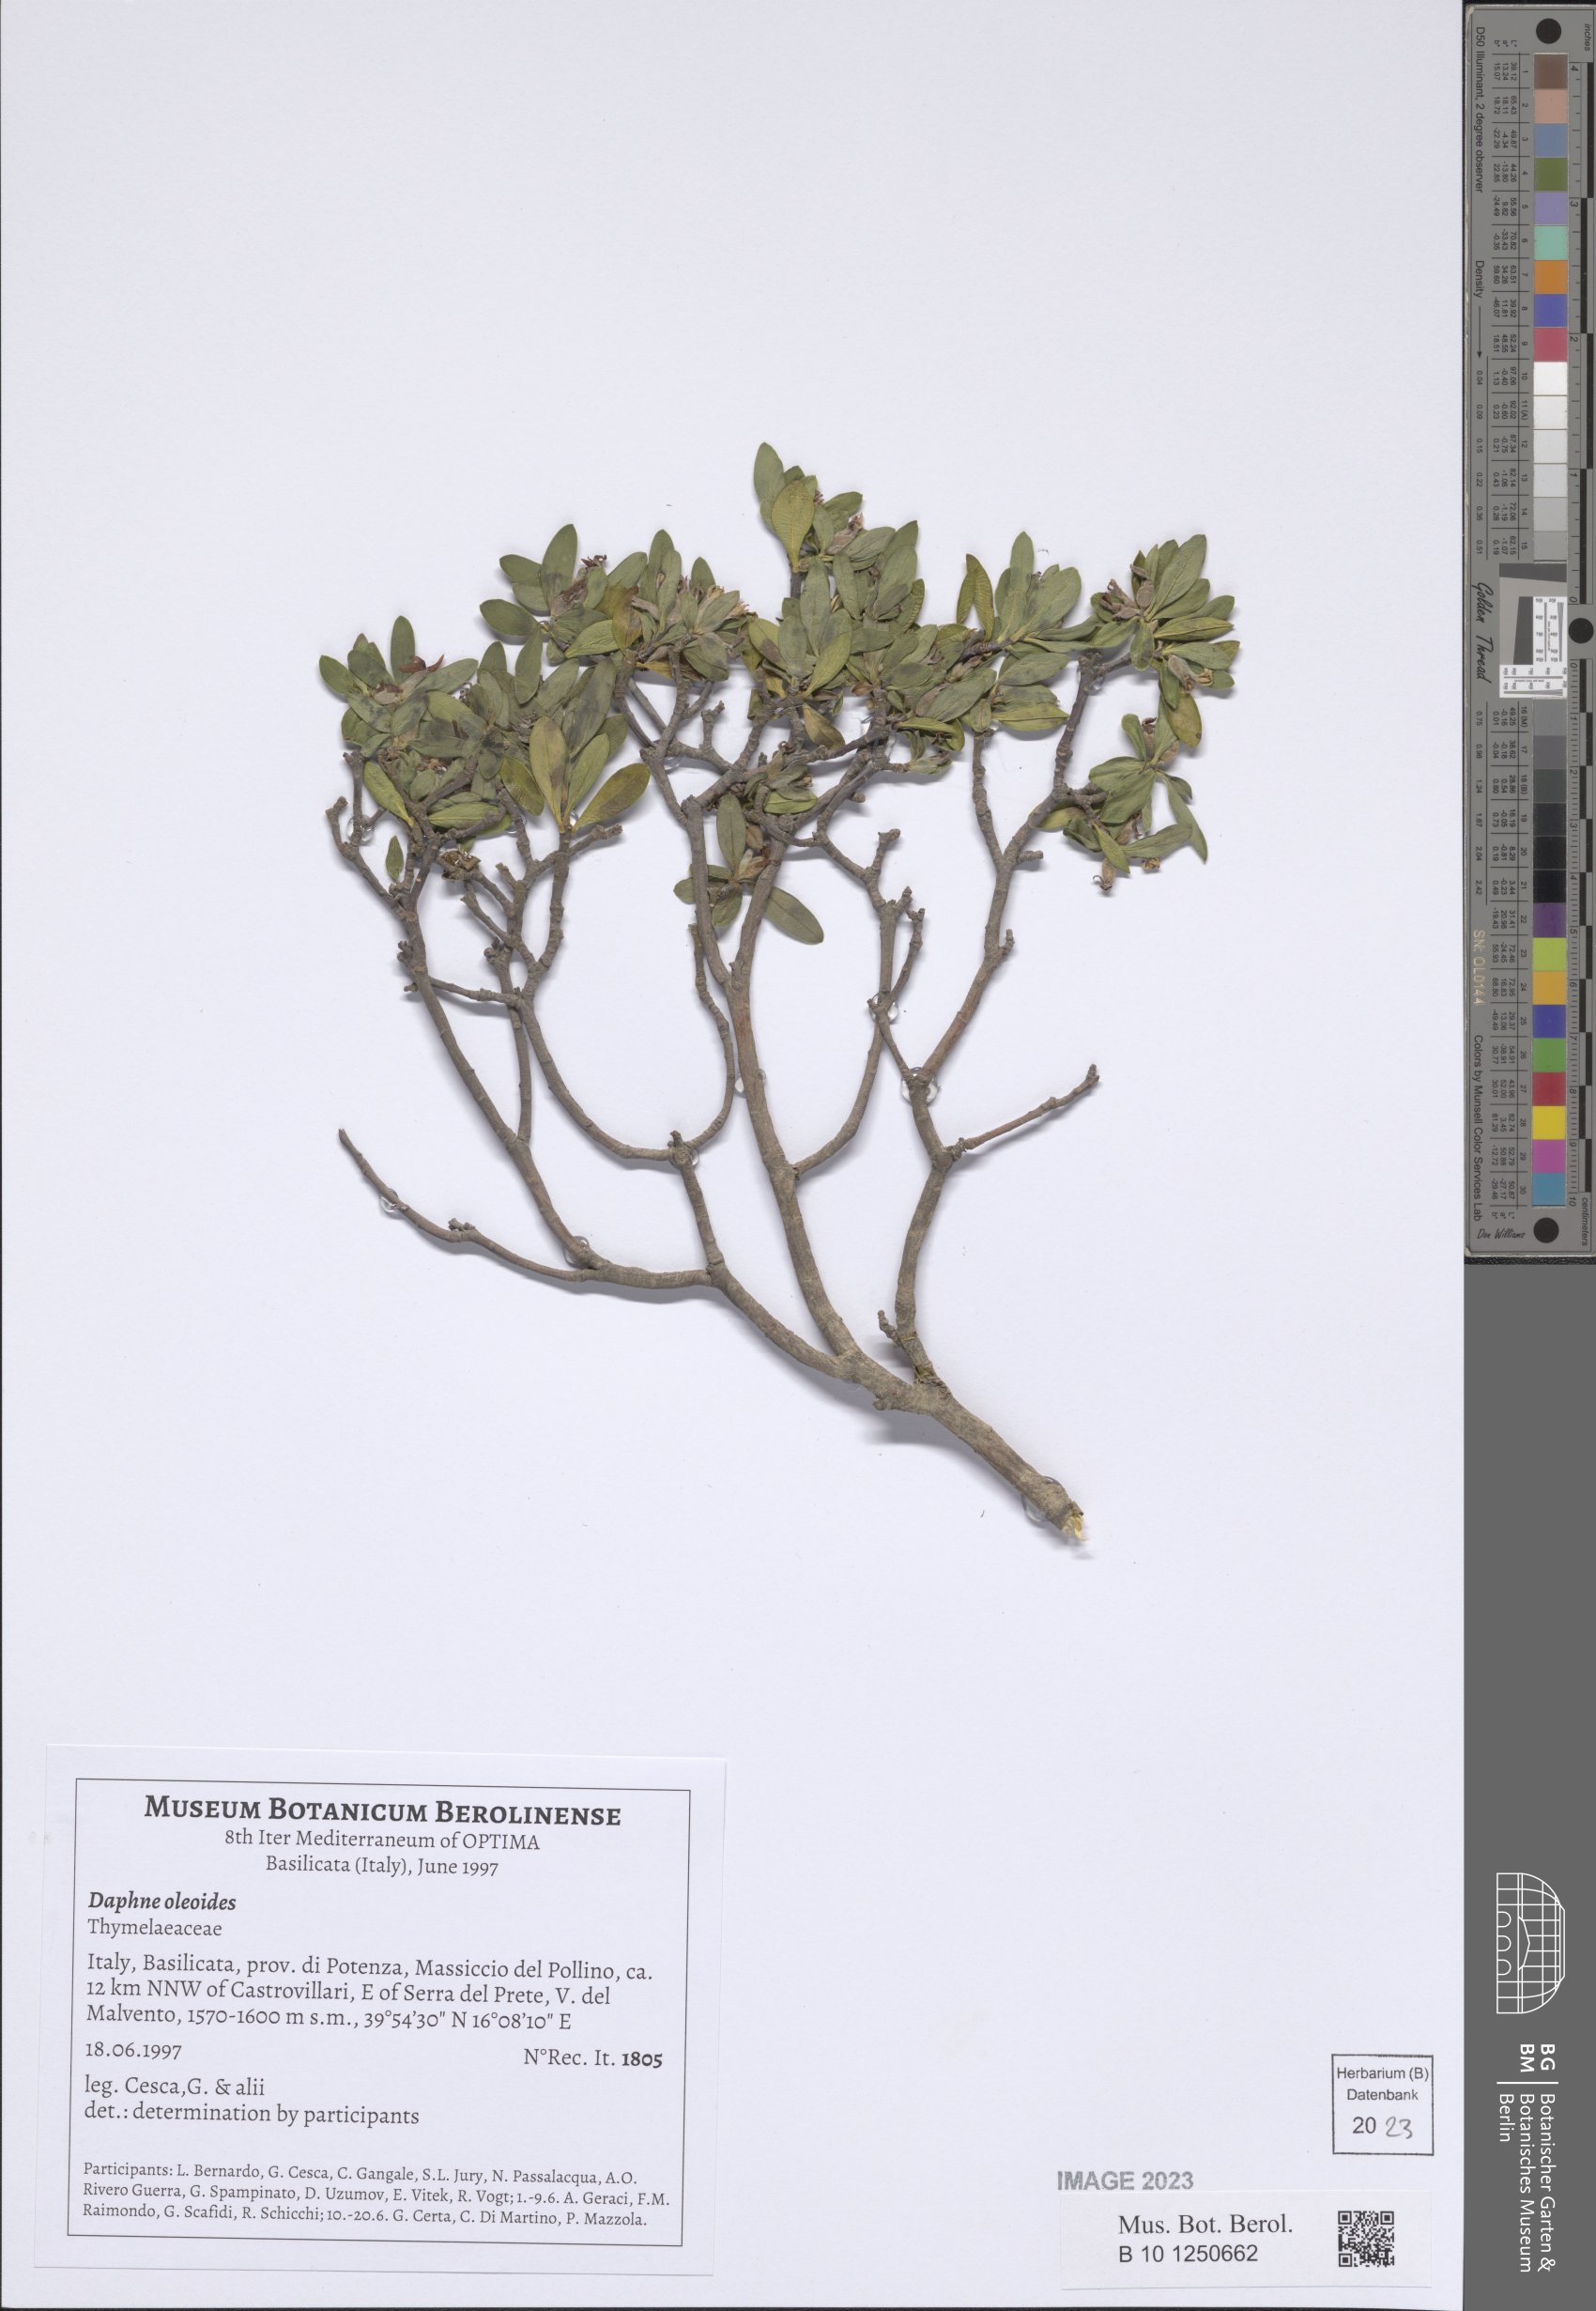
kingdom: Plantae
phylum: Tracheophyta
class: Magnoliopsida
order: Malvales
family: Thymelaeaceae
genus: Daphne
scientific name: Daphne oleoides
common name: Spurge-olive
